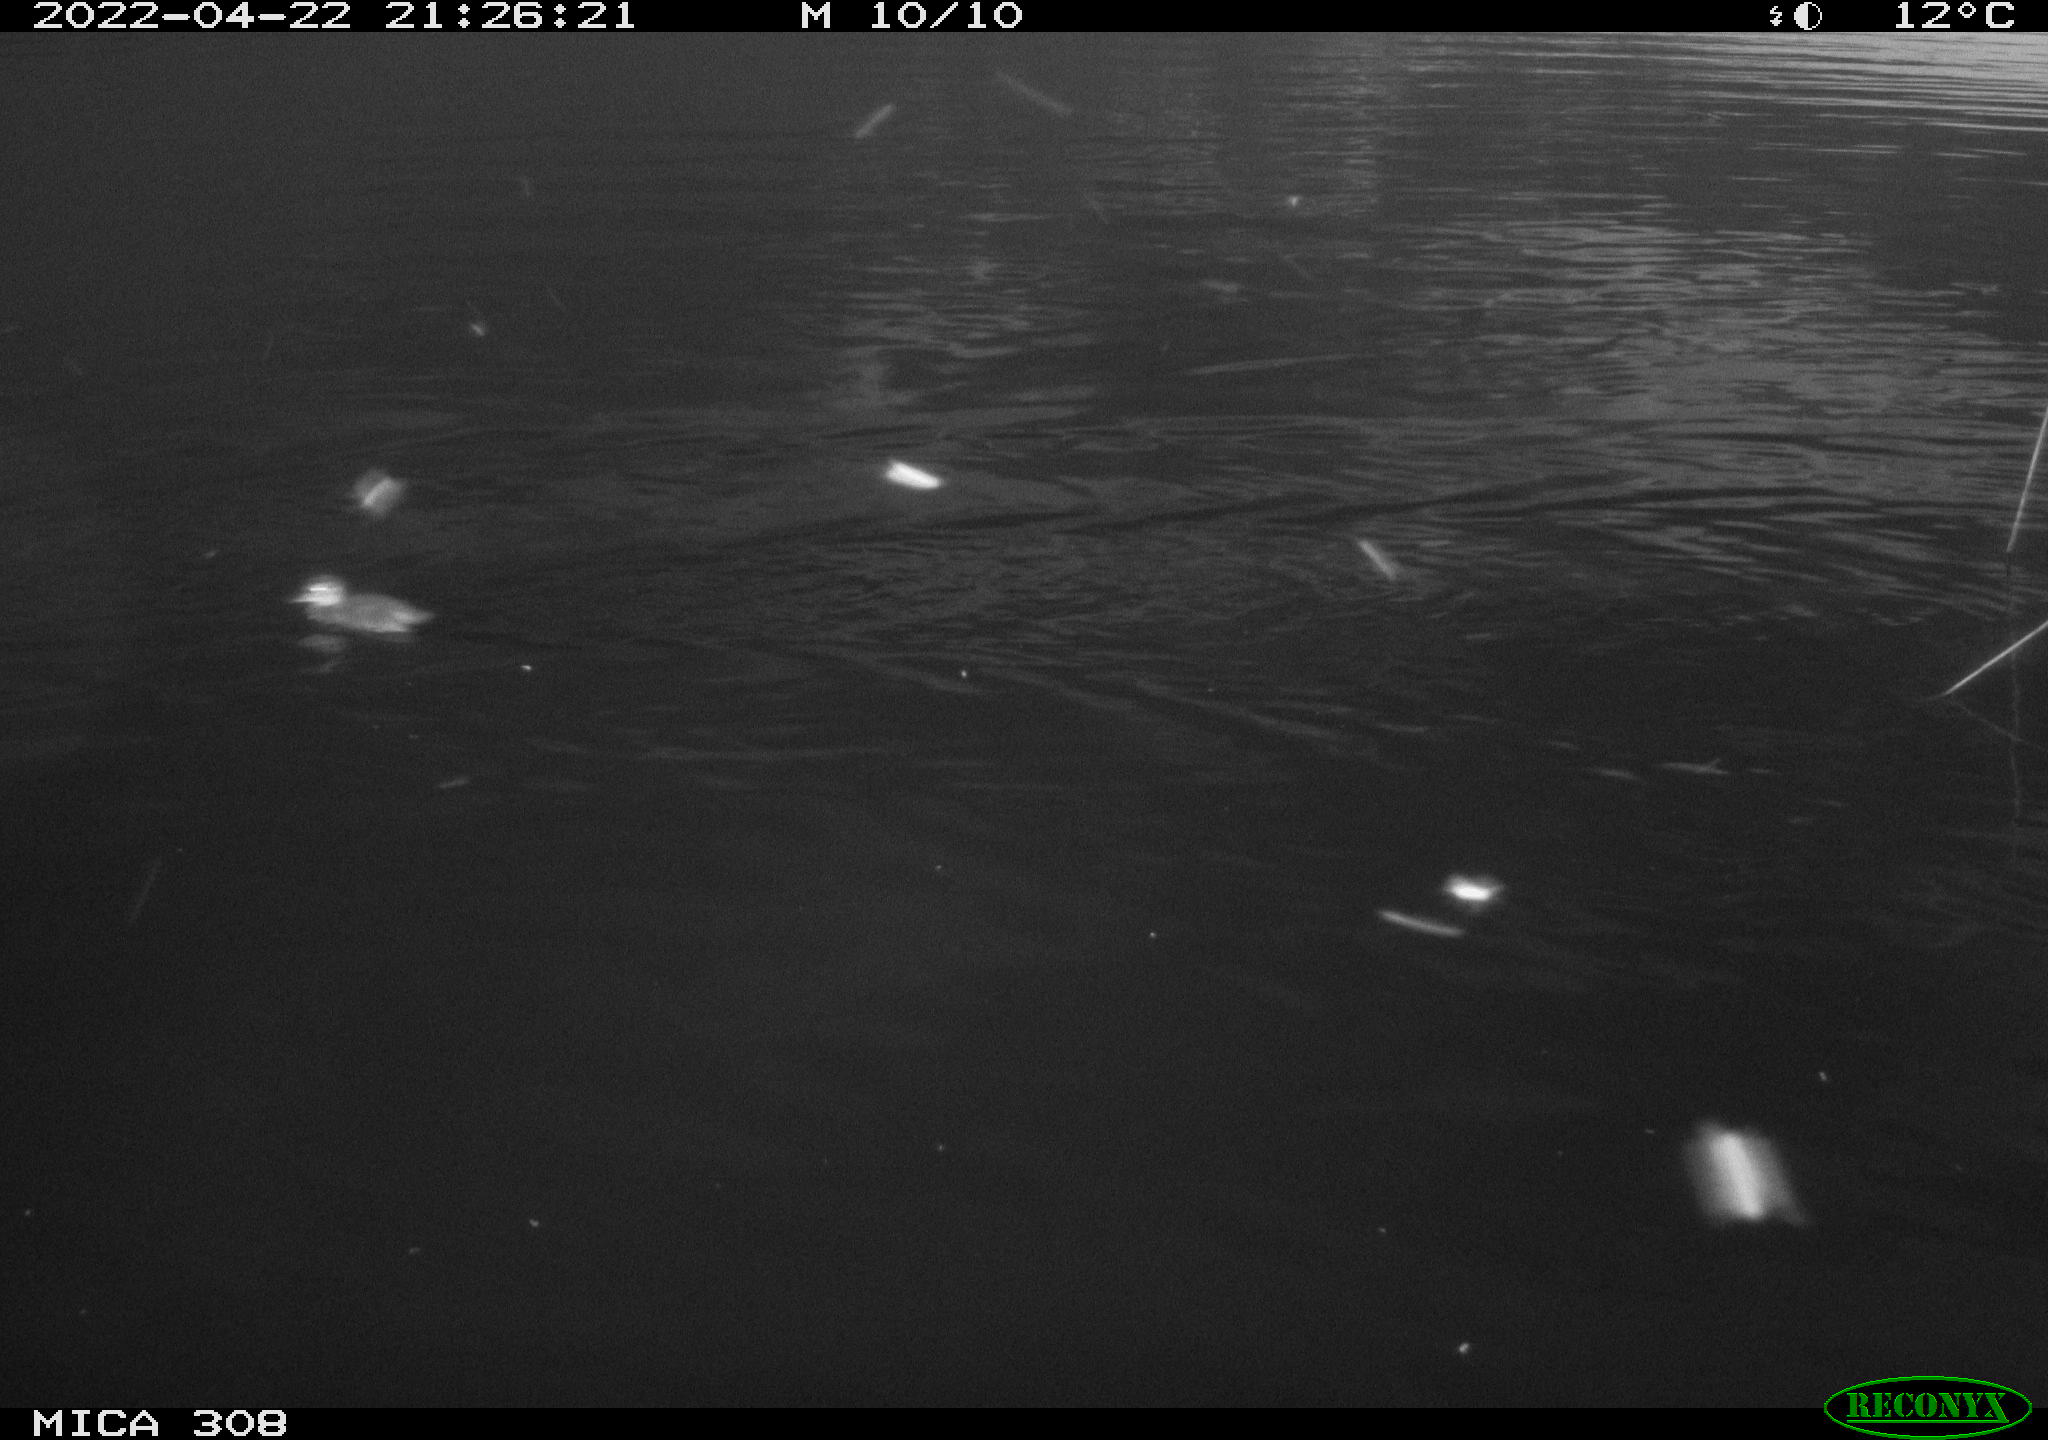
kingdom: Animalia
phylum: Chordata
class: Aves
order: Anseriformes
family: Anatidae
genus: Mareca
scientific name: Mareca strepera
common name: Gadwall
